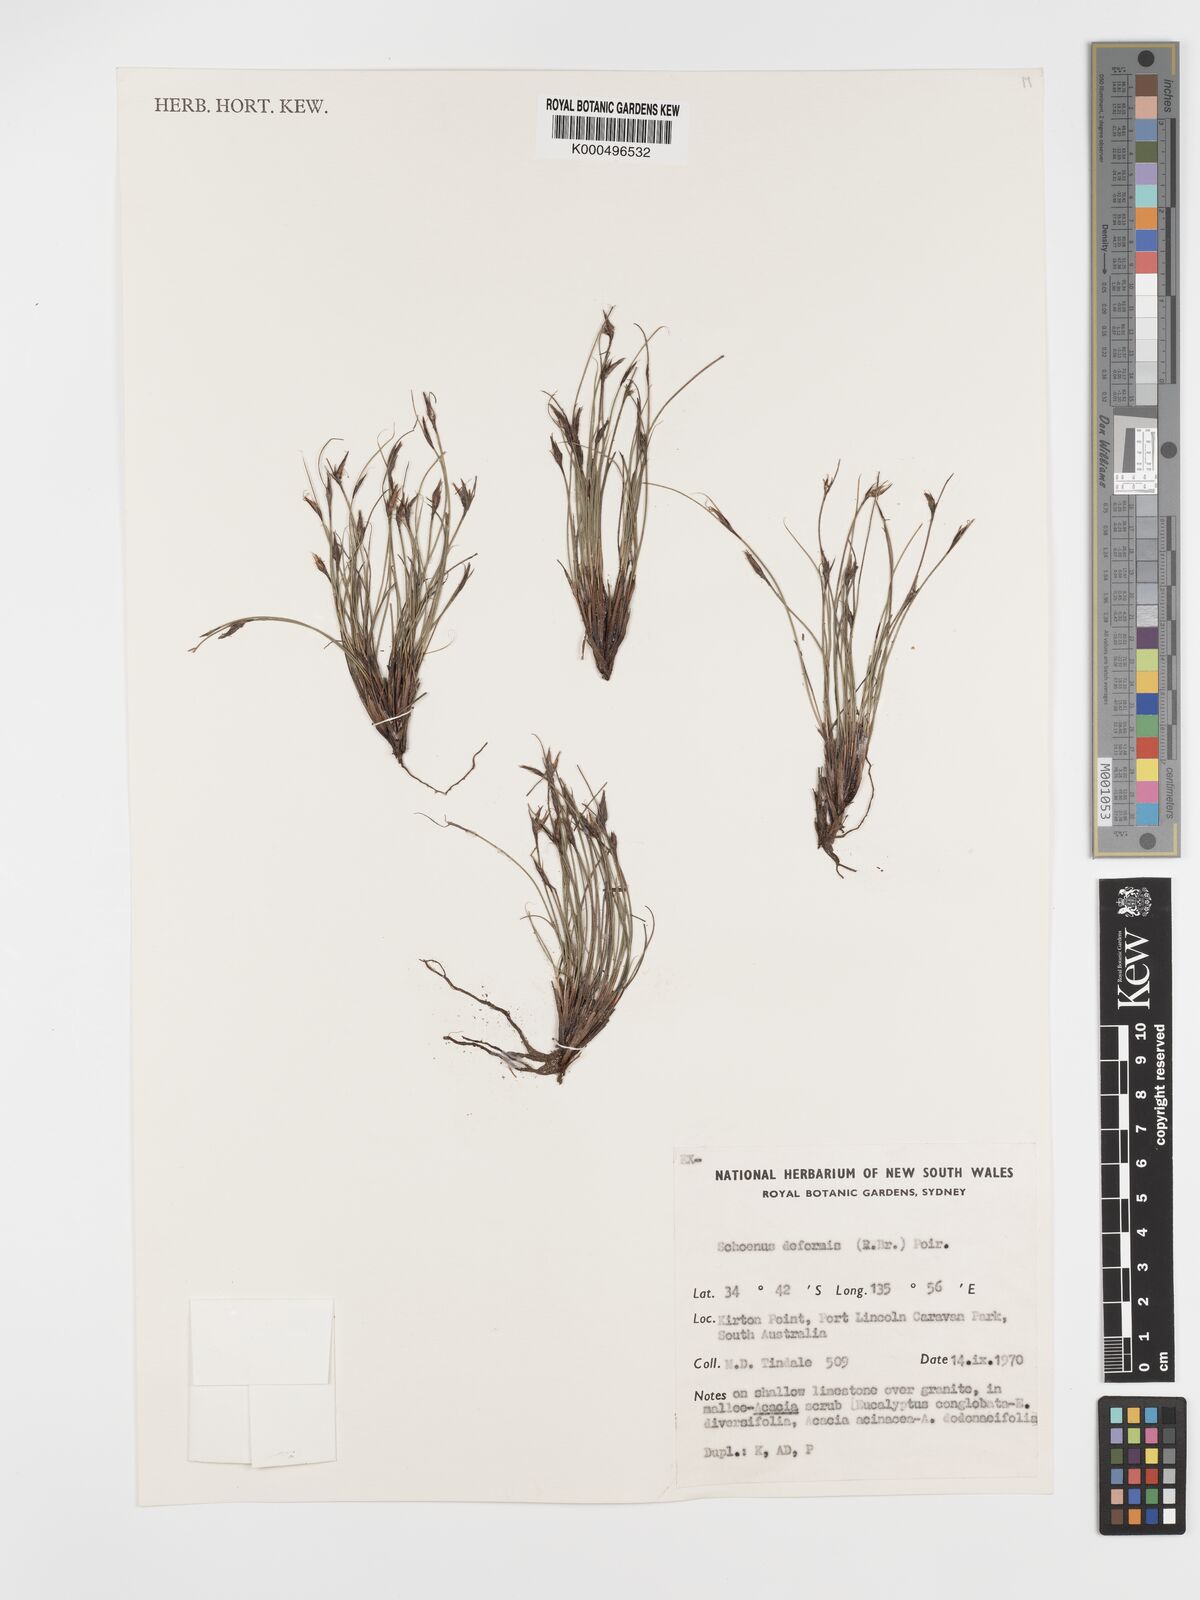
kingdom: Plantae
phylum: Tracheophyta
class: Liliopsida
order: Poales
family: Cyperaceae
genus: Schoenus
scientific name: Schoenus
